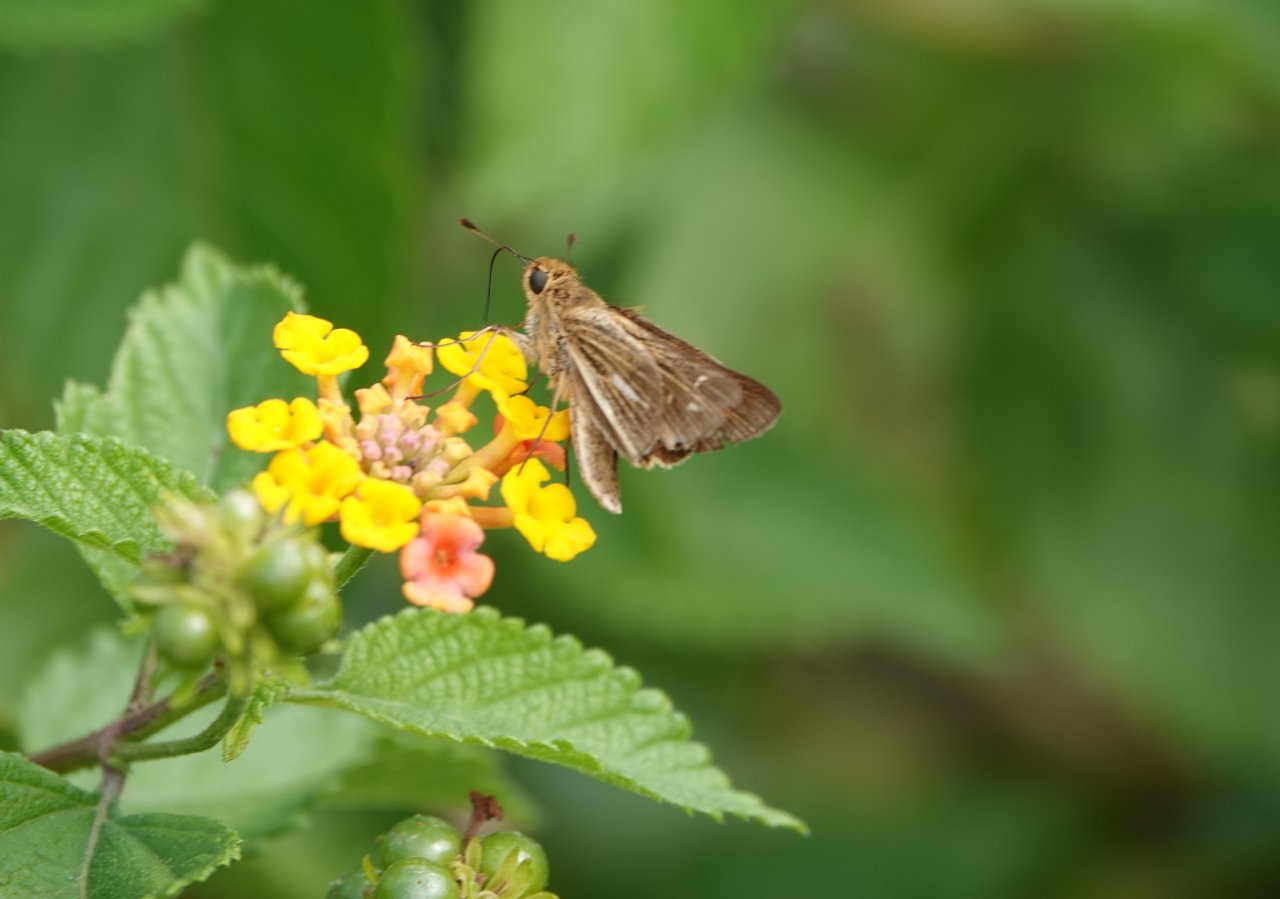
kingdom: Animalia
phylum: Arthropoda
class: Insecta
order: Lepidoptera
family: Hesperiidae
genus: Panoquina
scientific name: Panoquina panoquin
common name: Salt Marsh Skipper
